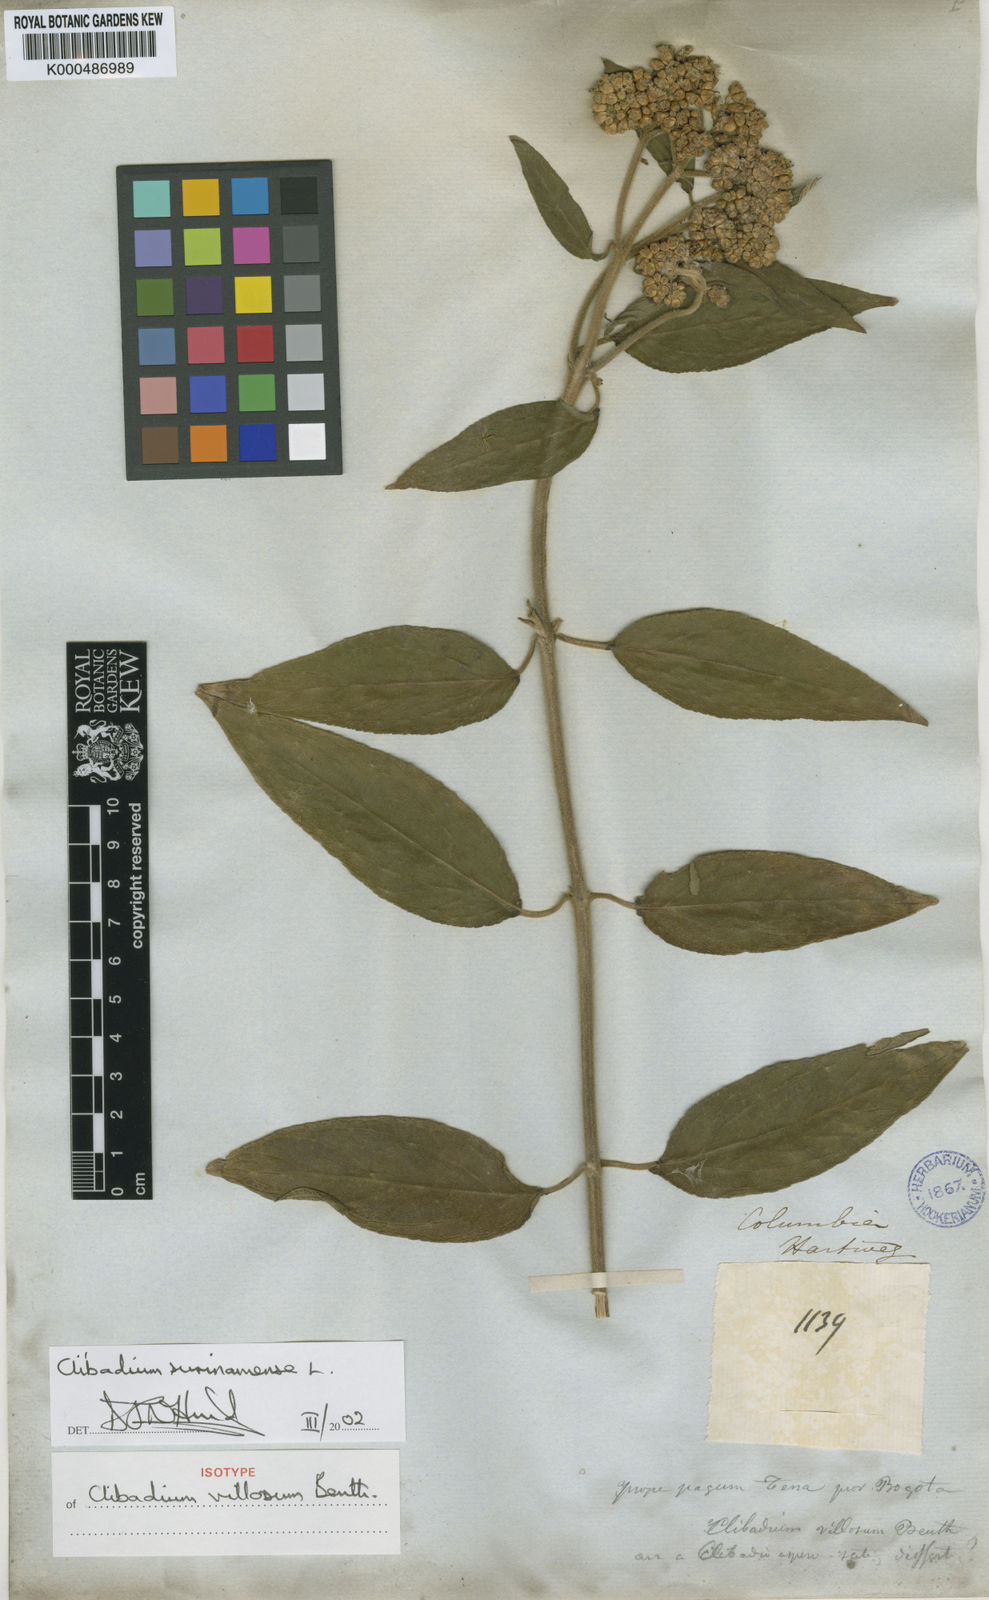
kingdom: Plantae
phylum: Tracheophyta
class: Magnoliopsida
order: Asterales
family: Asteraceae
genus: Clibadium
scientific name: Clibadium surinamense
